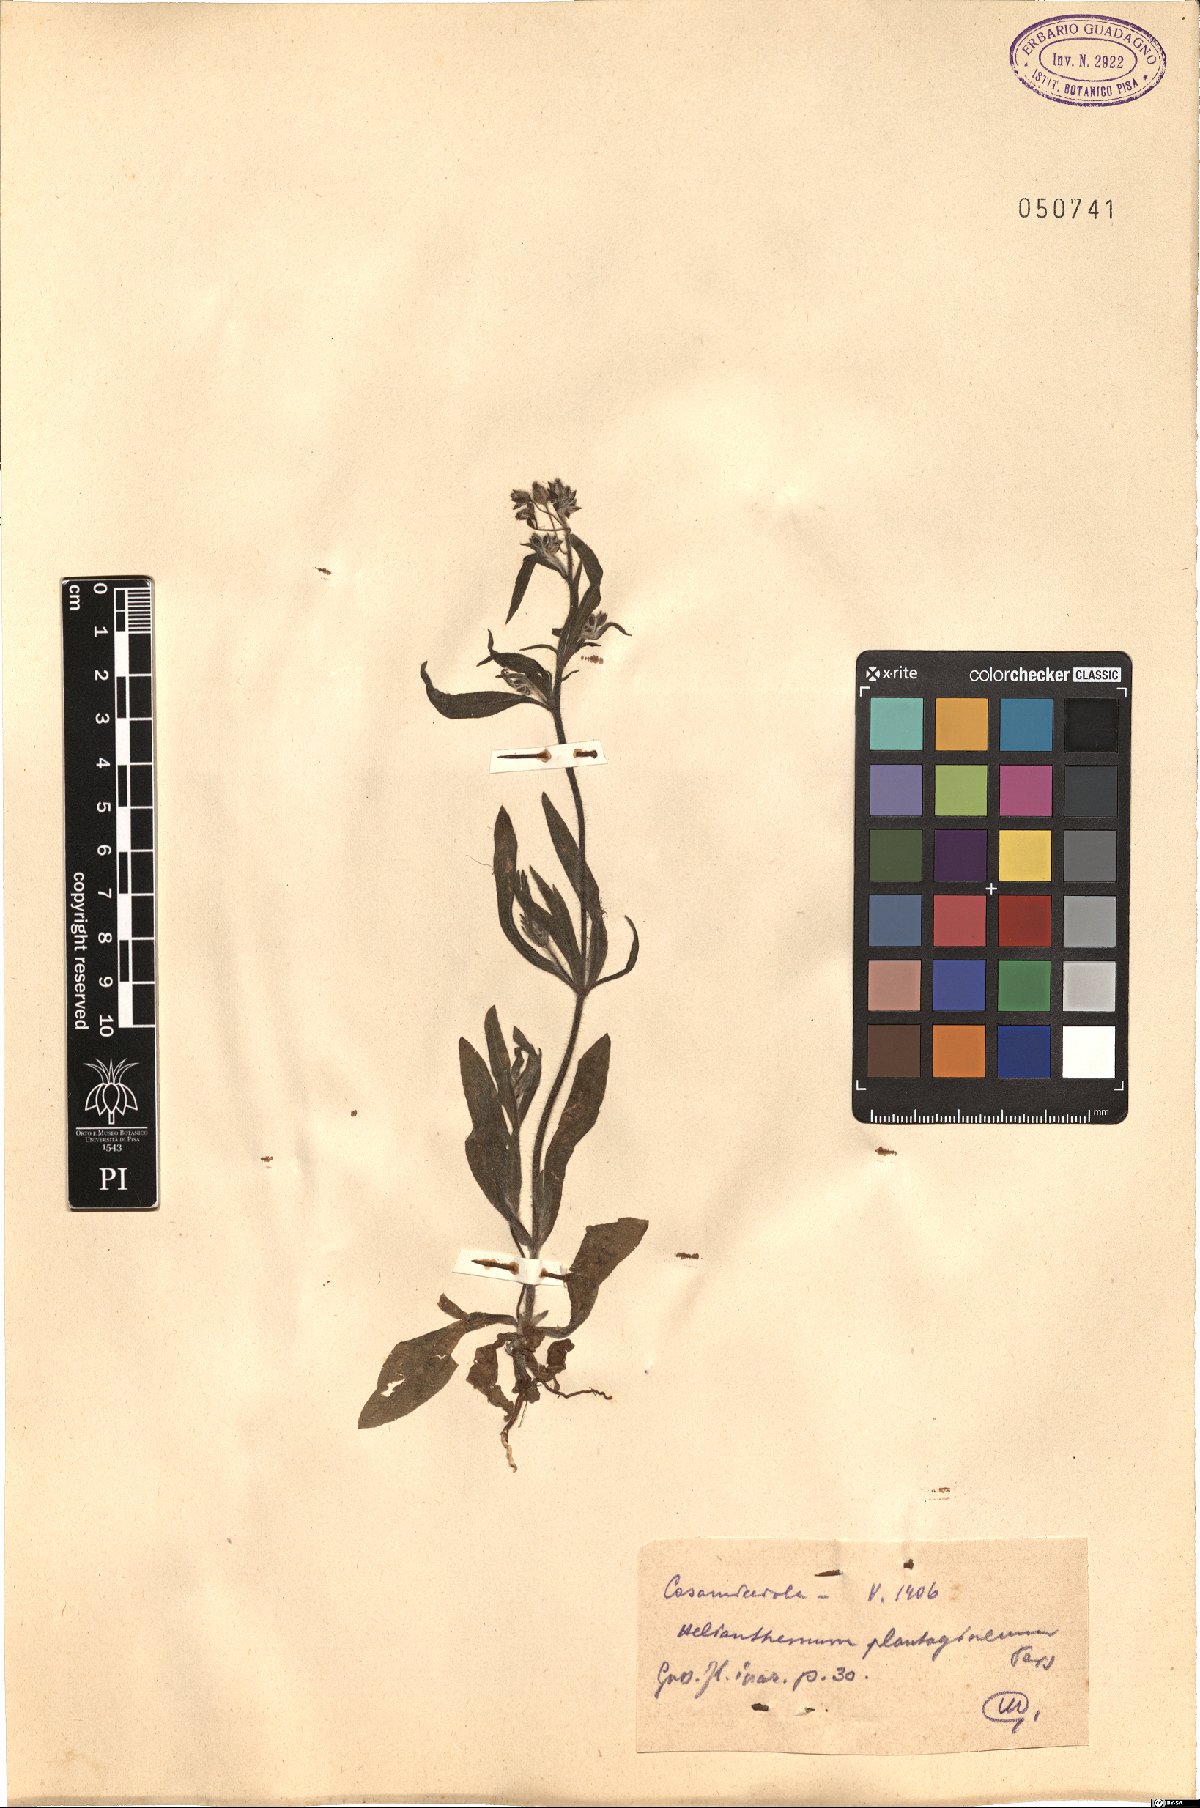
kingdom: Plantae
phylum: Tracheophyta
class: Magnoliopsida
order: Malvales
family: Cistaceae
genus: Tuberaria
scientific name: Tuberaria inconspicua
